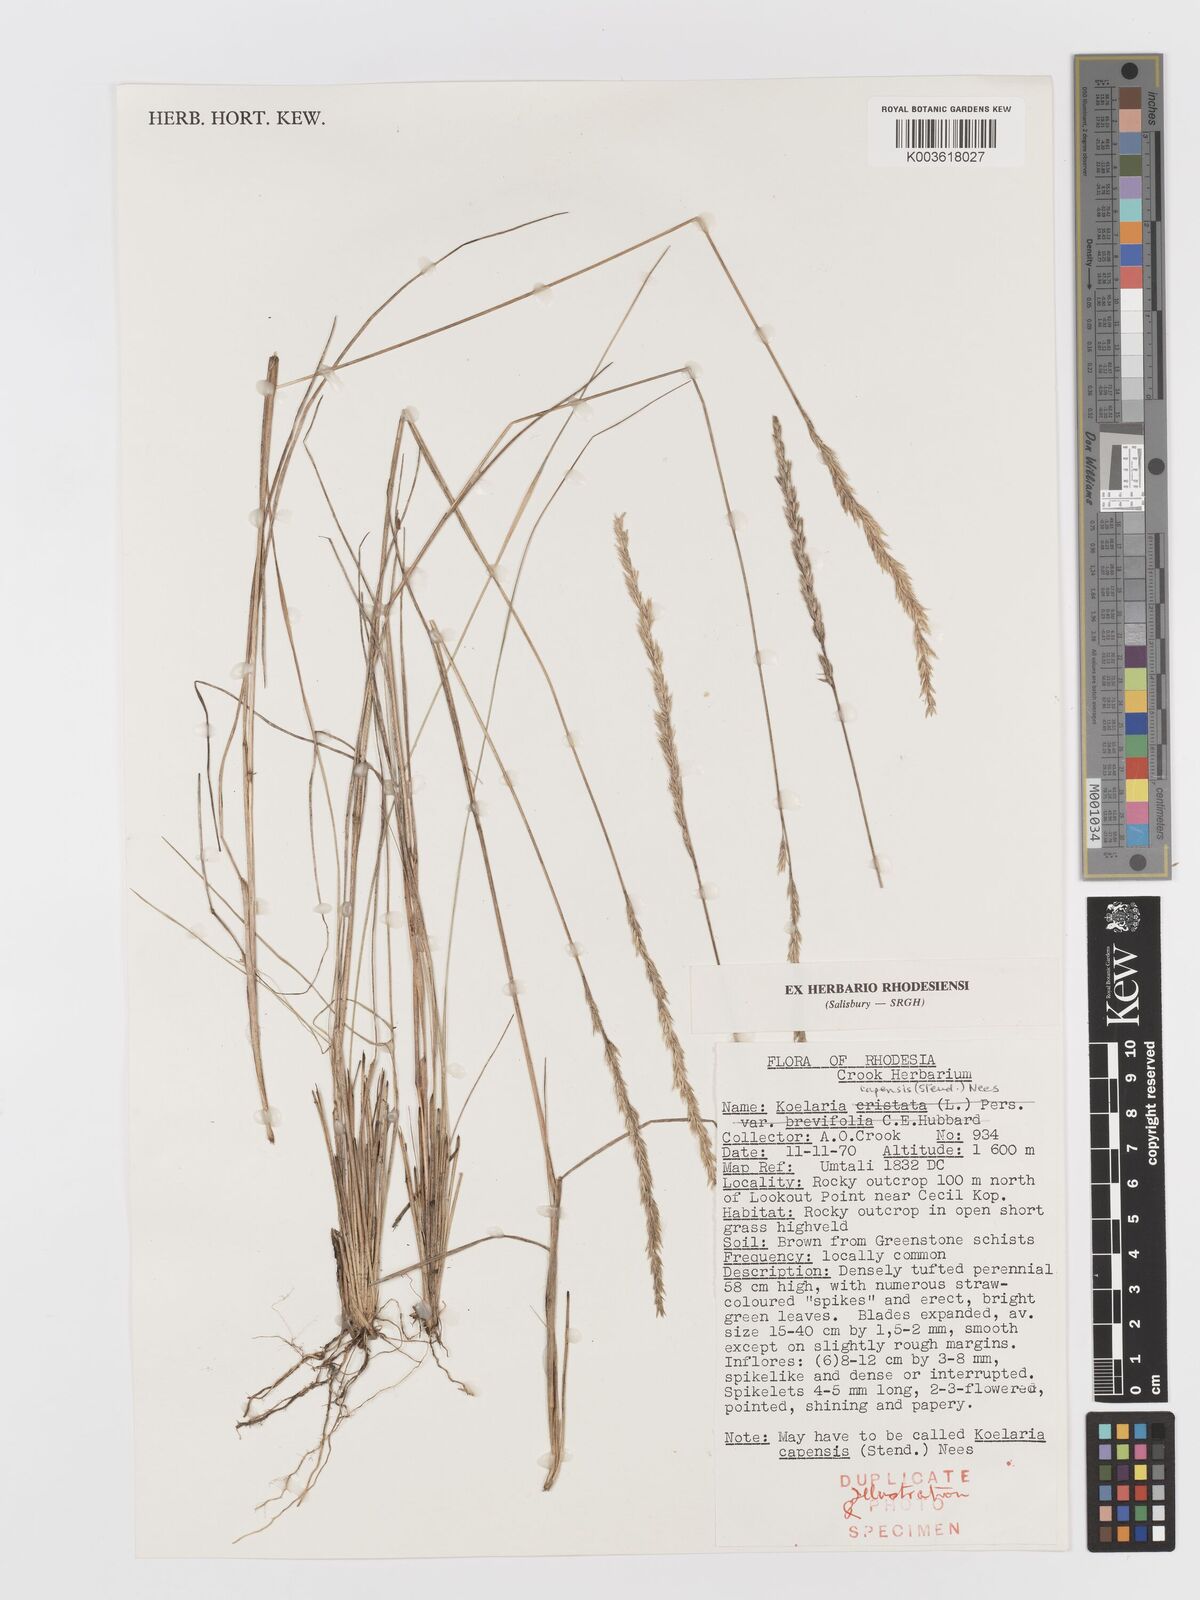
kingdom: Plantae
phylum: Tracheophyta
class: Liliopsida
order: Poales
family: Poaceae
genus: Koeleria
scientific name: Koeleria capensis
